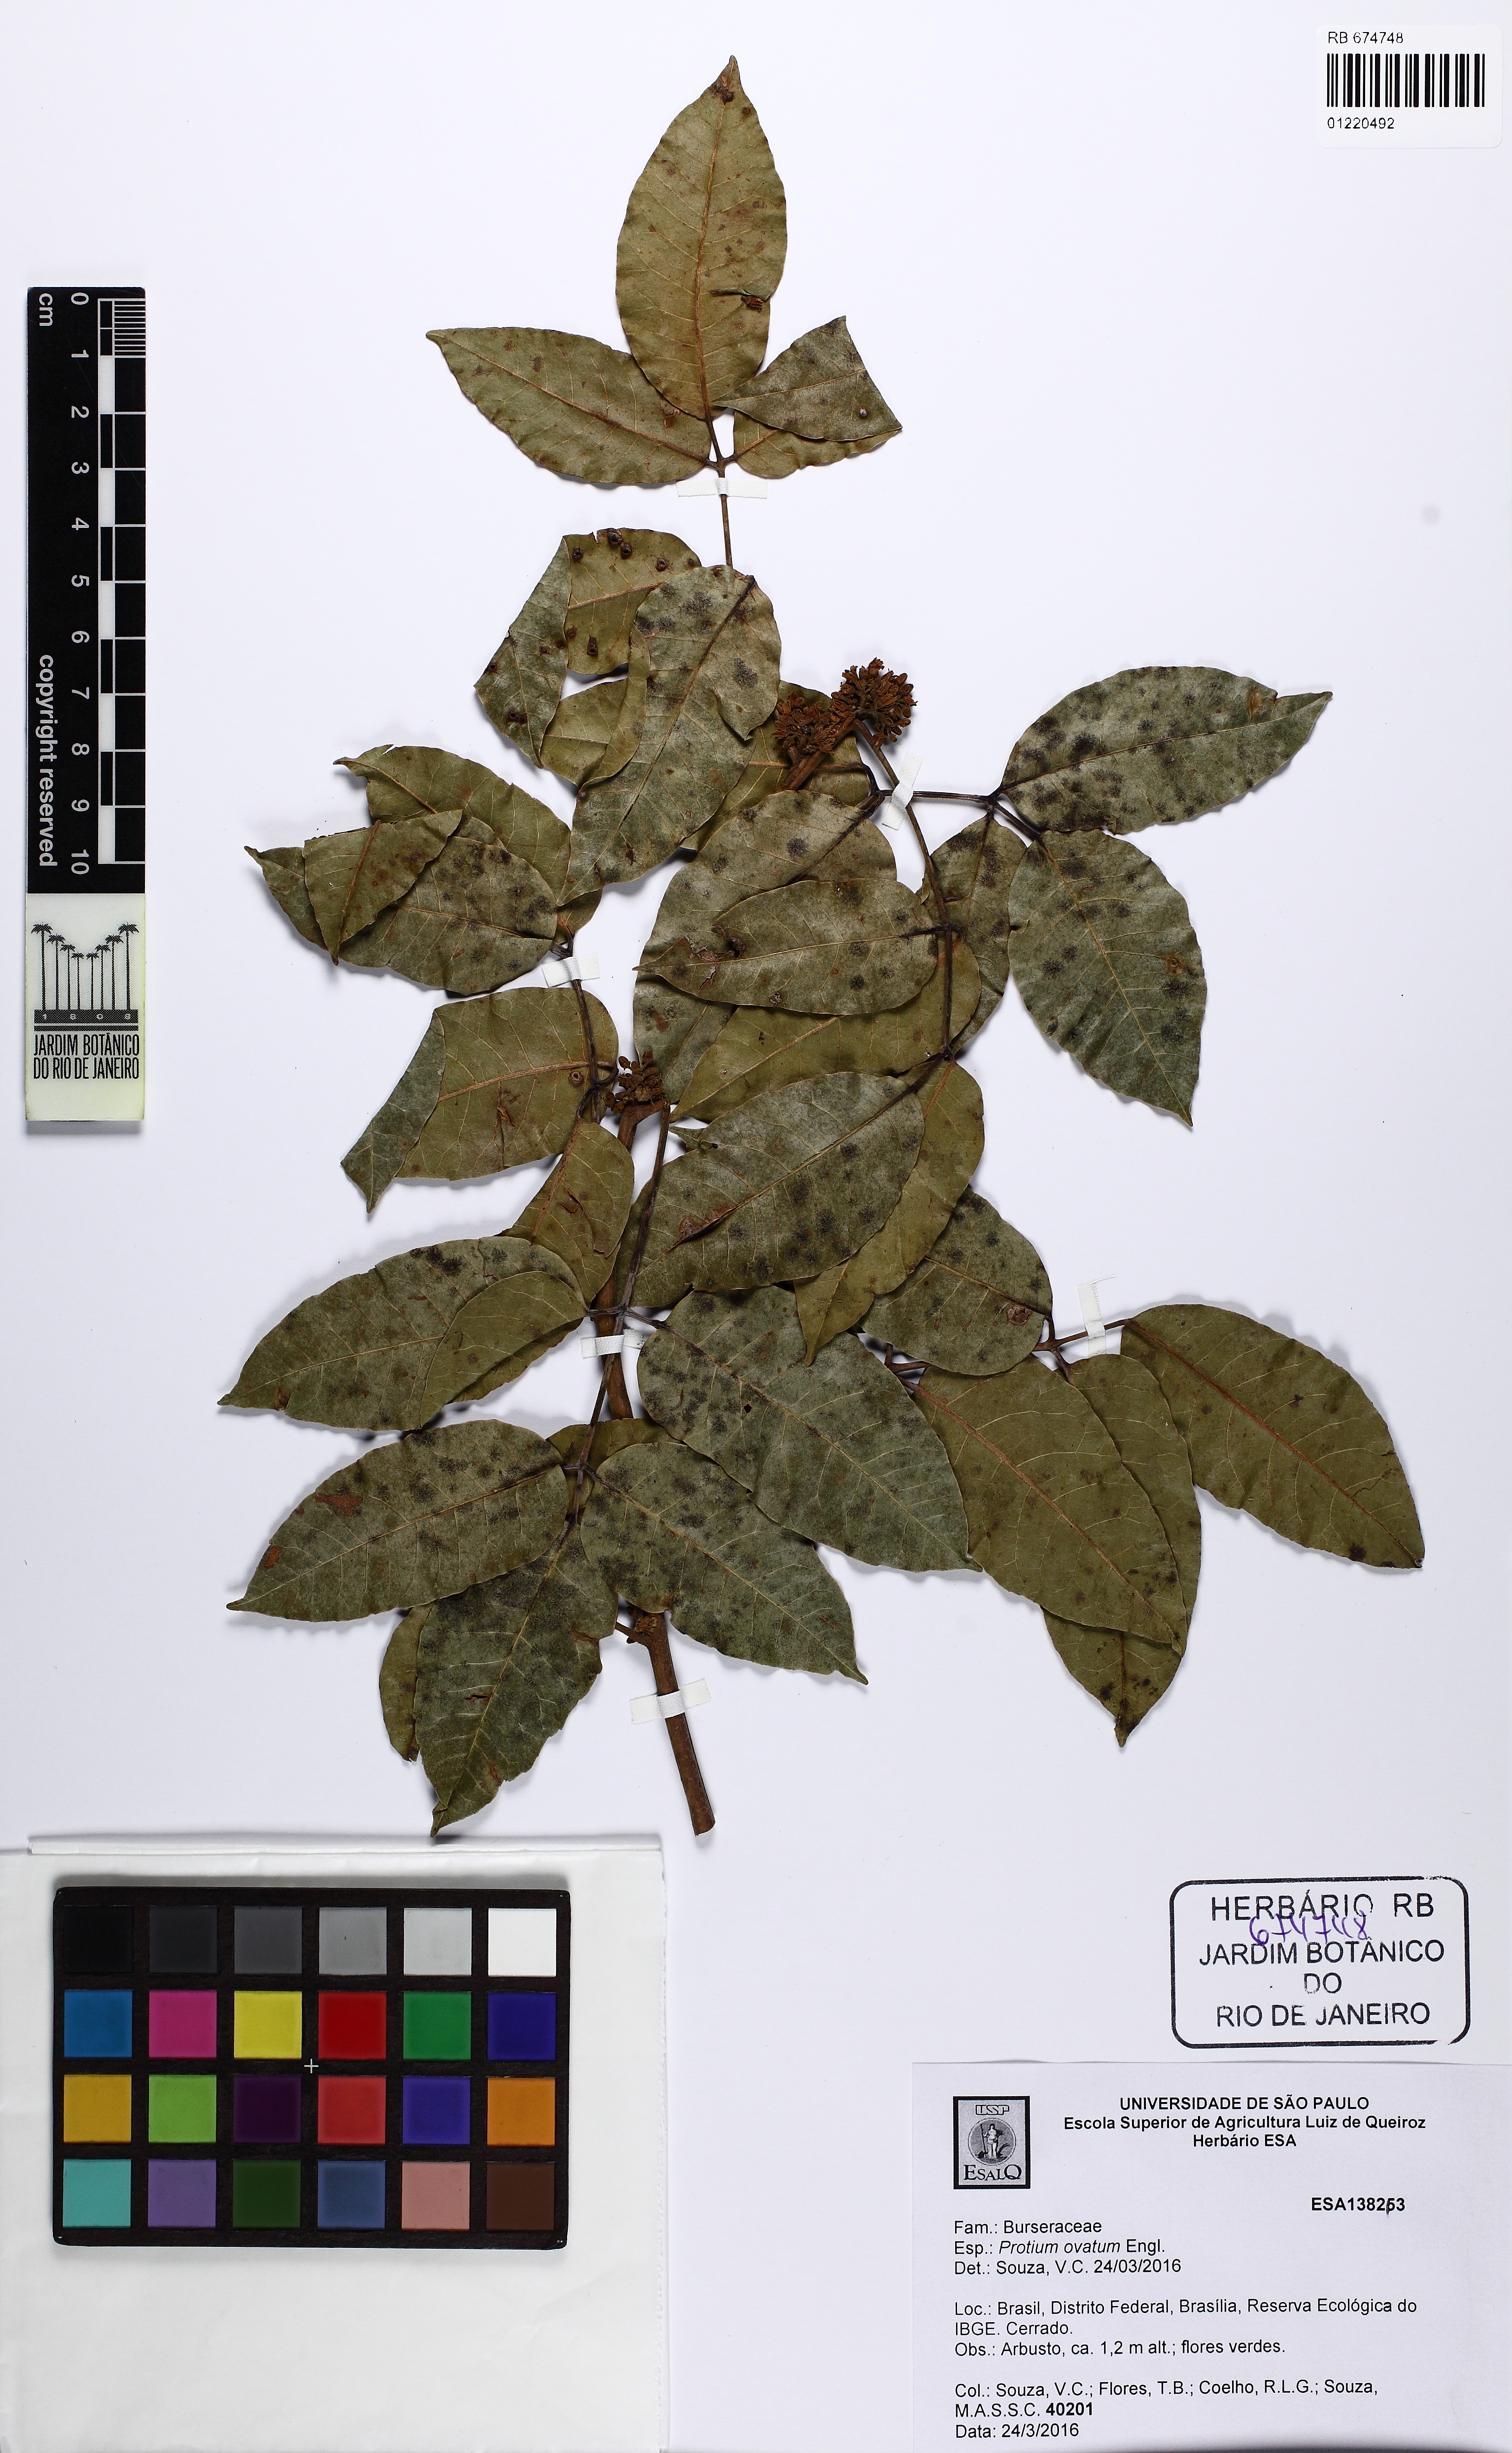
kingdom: Plantae
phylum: Tracheophyta
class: Magnoliopsida
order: Sapindales
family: Burseraceae
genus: Protium
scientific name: Protium ovatum
